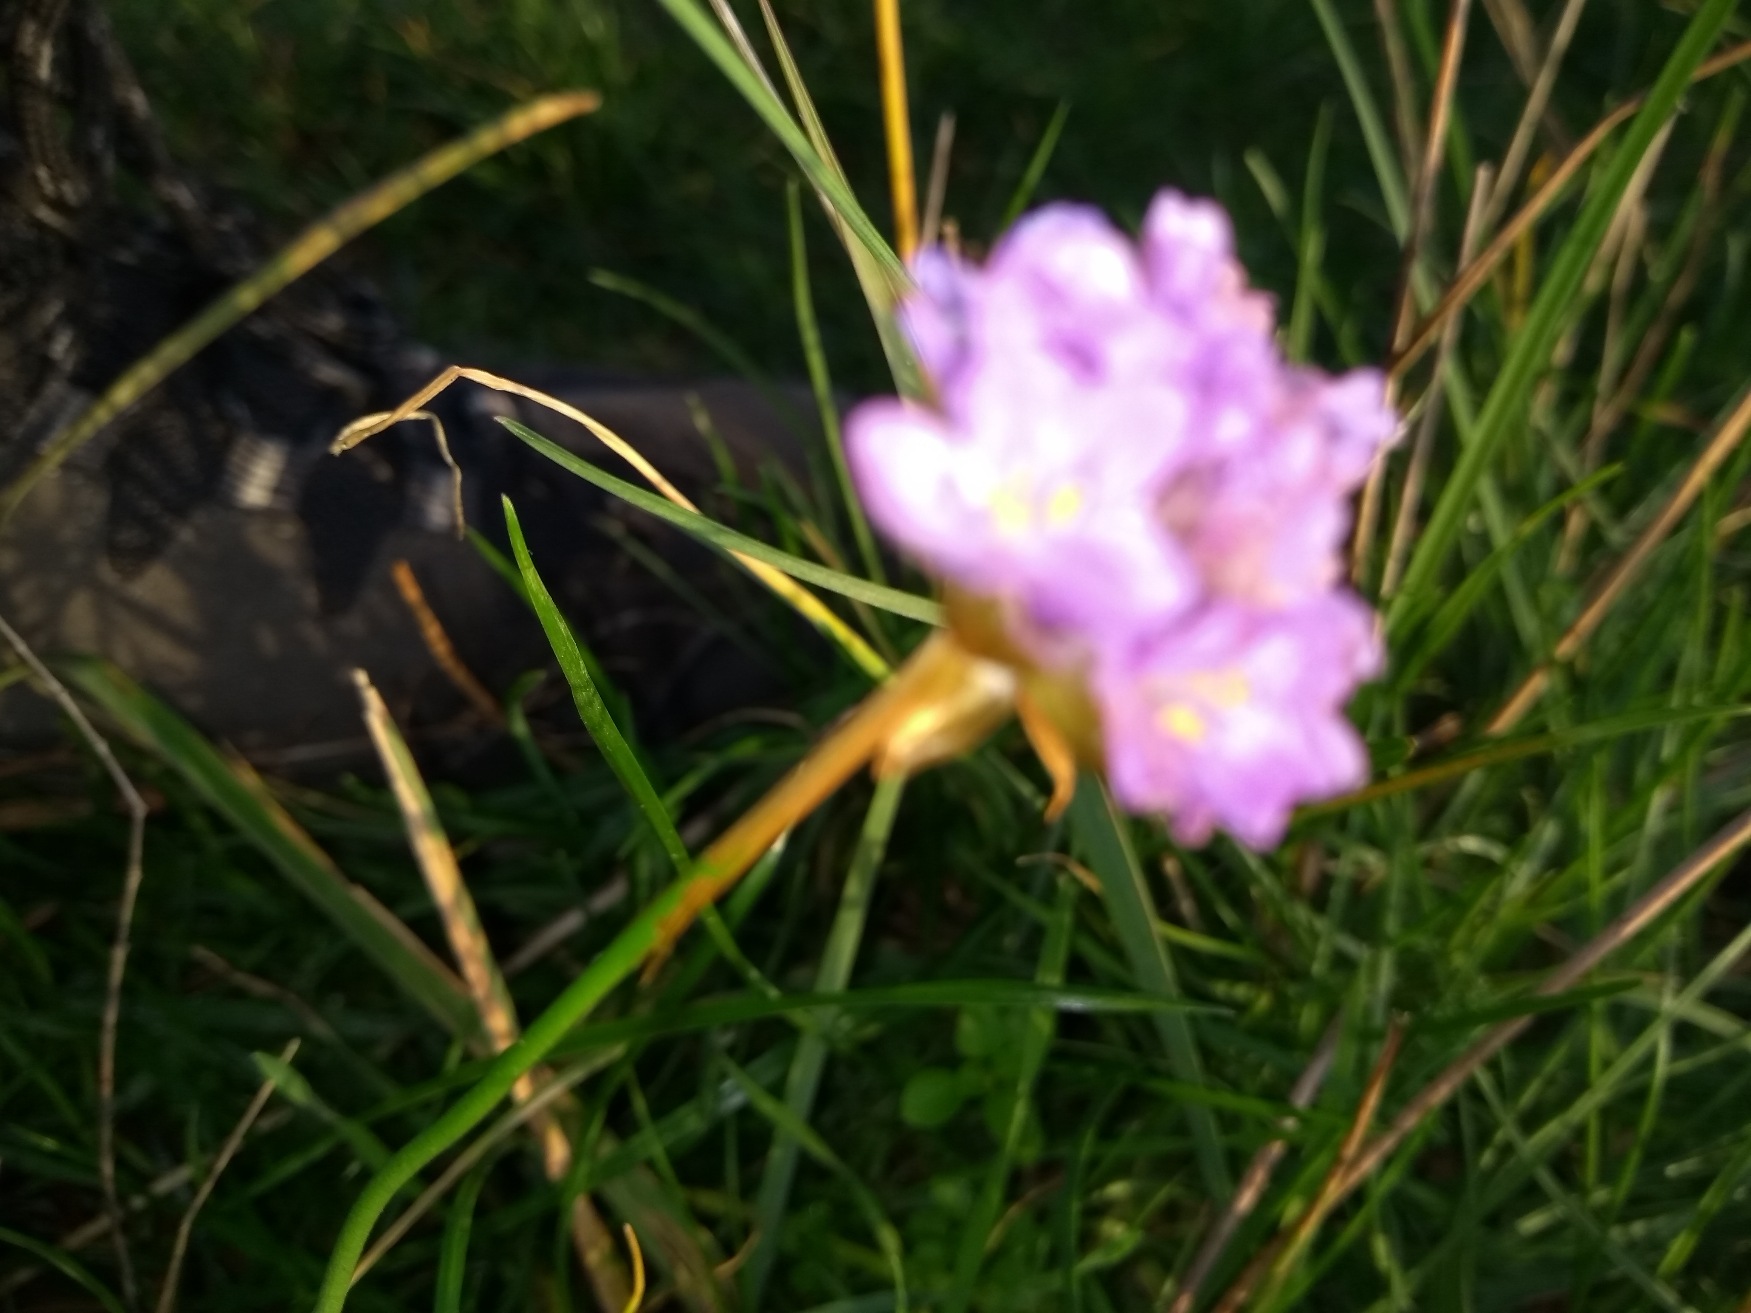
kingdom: Plantae
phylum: Tracheophyta
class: Magnoliopsida
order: Caryophyllales
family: Plumbaginaceae
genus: Armeria
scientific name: Armeria maritima
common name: Engelskgræs
